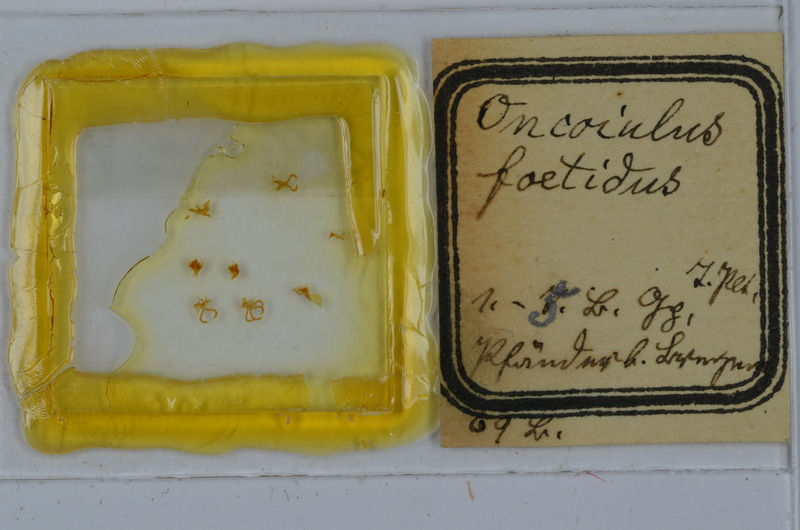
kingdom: Animalia
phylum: Arthropoda
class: Diplopoda
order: Julida
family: Julidae
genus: Unciger
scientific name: Unciger foetidus
